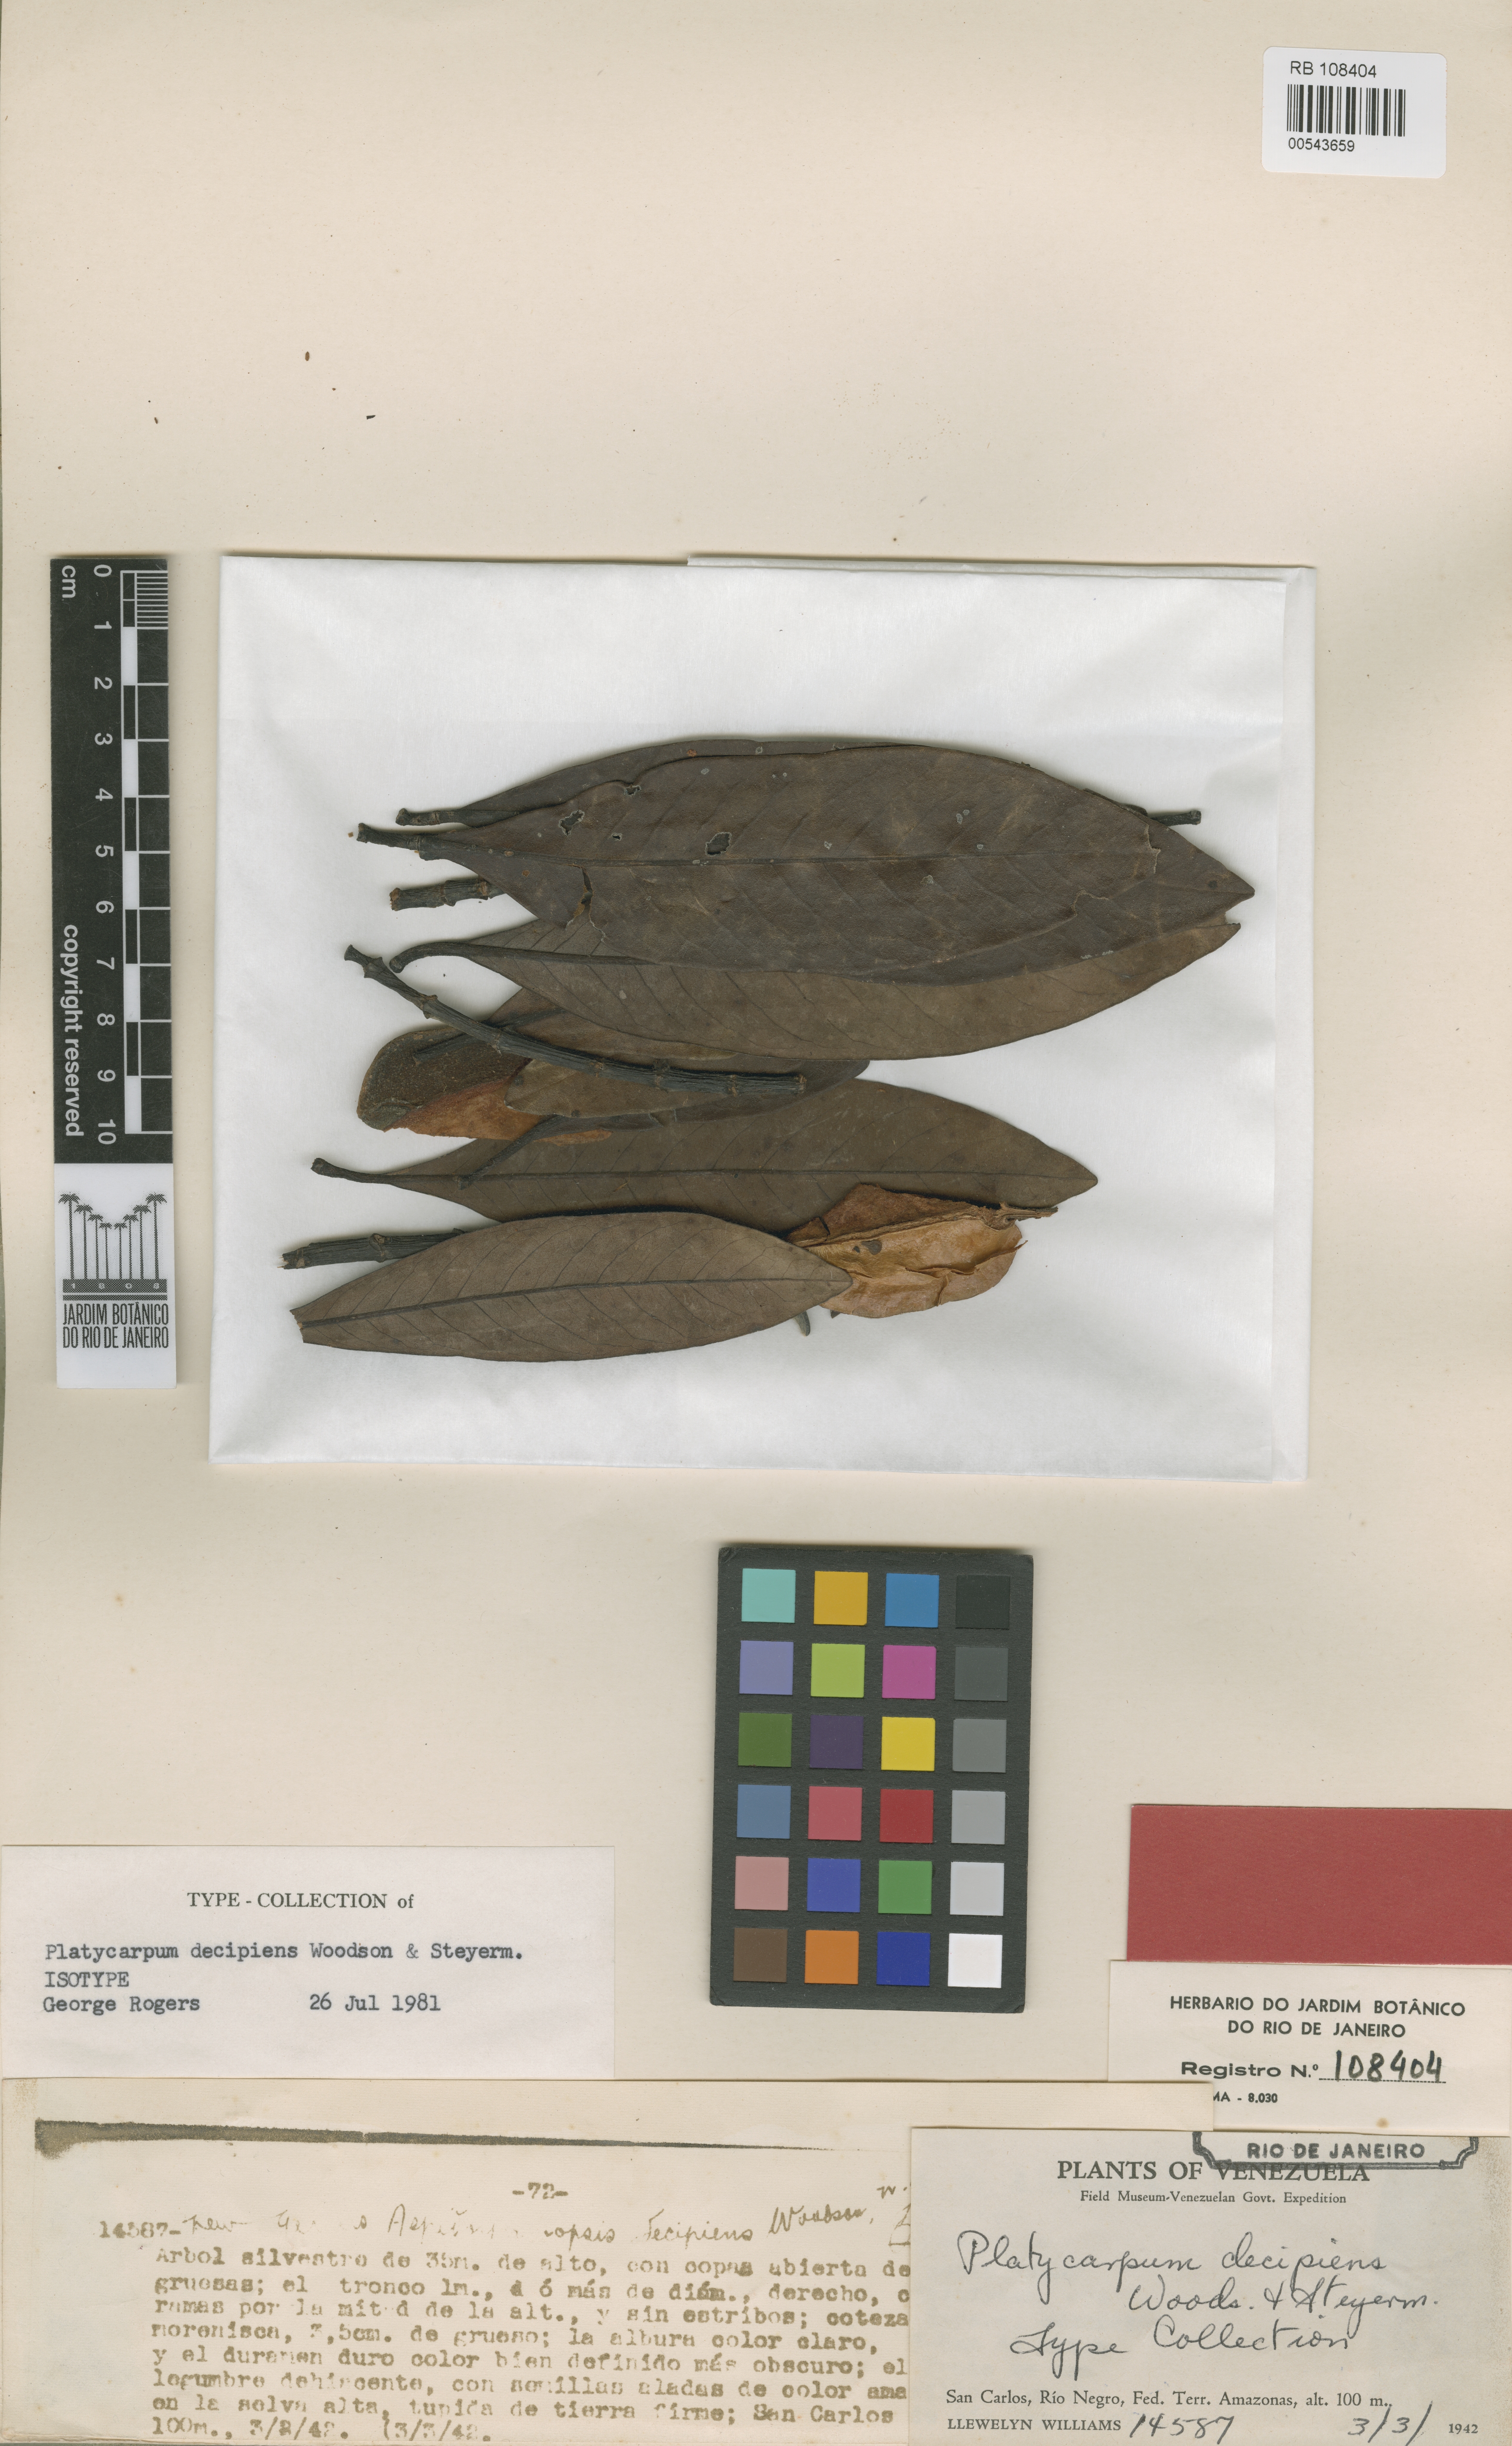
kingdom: Plantae
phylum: Tracheophyta
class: Magnoliopsida
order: Gentianales
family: Rubiaceae
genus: Platycarpum
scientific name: Platycarpum decipiens
